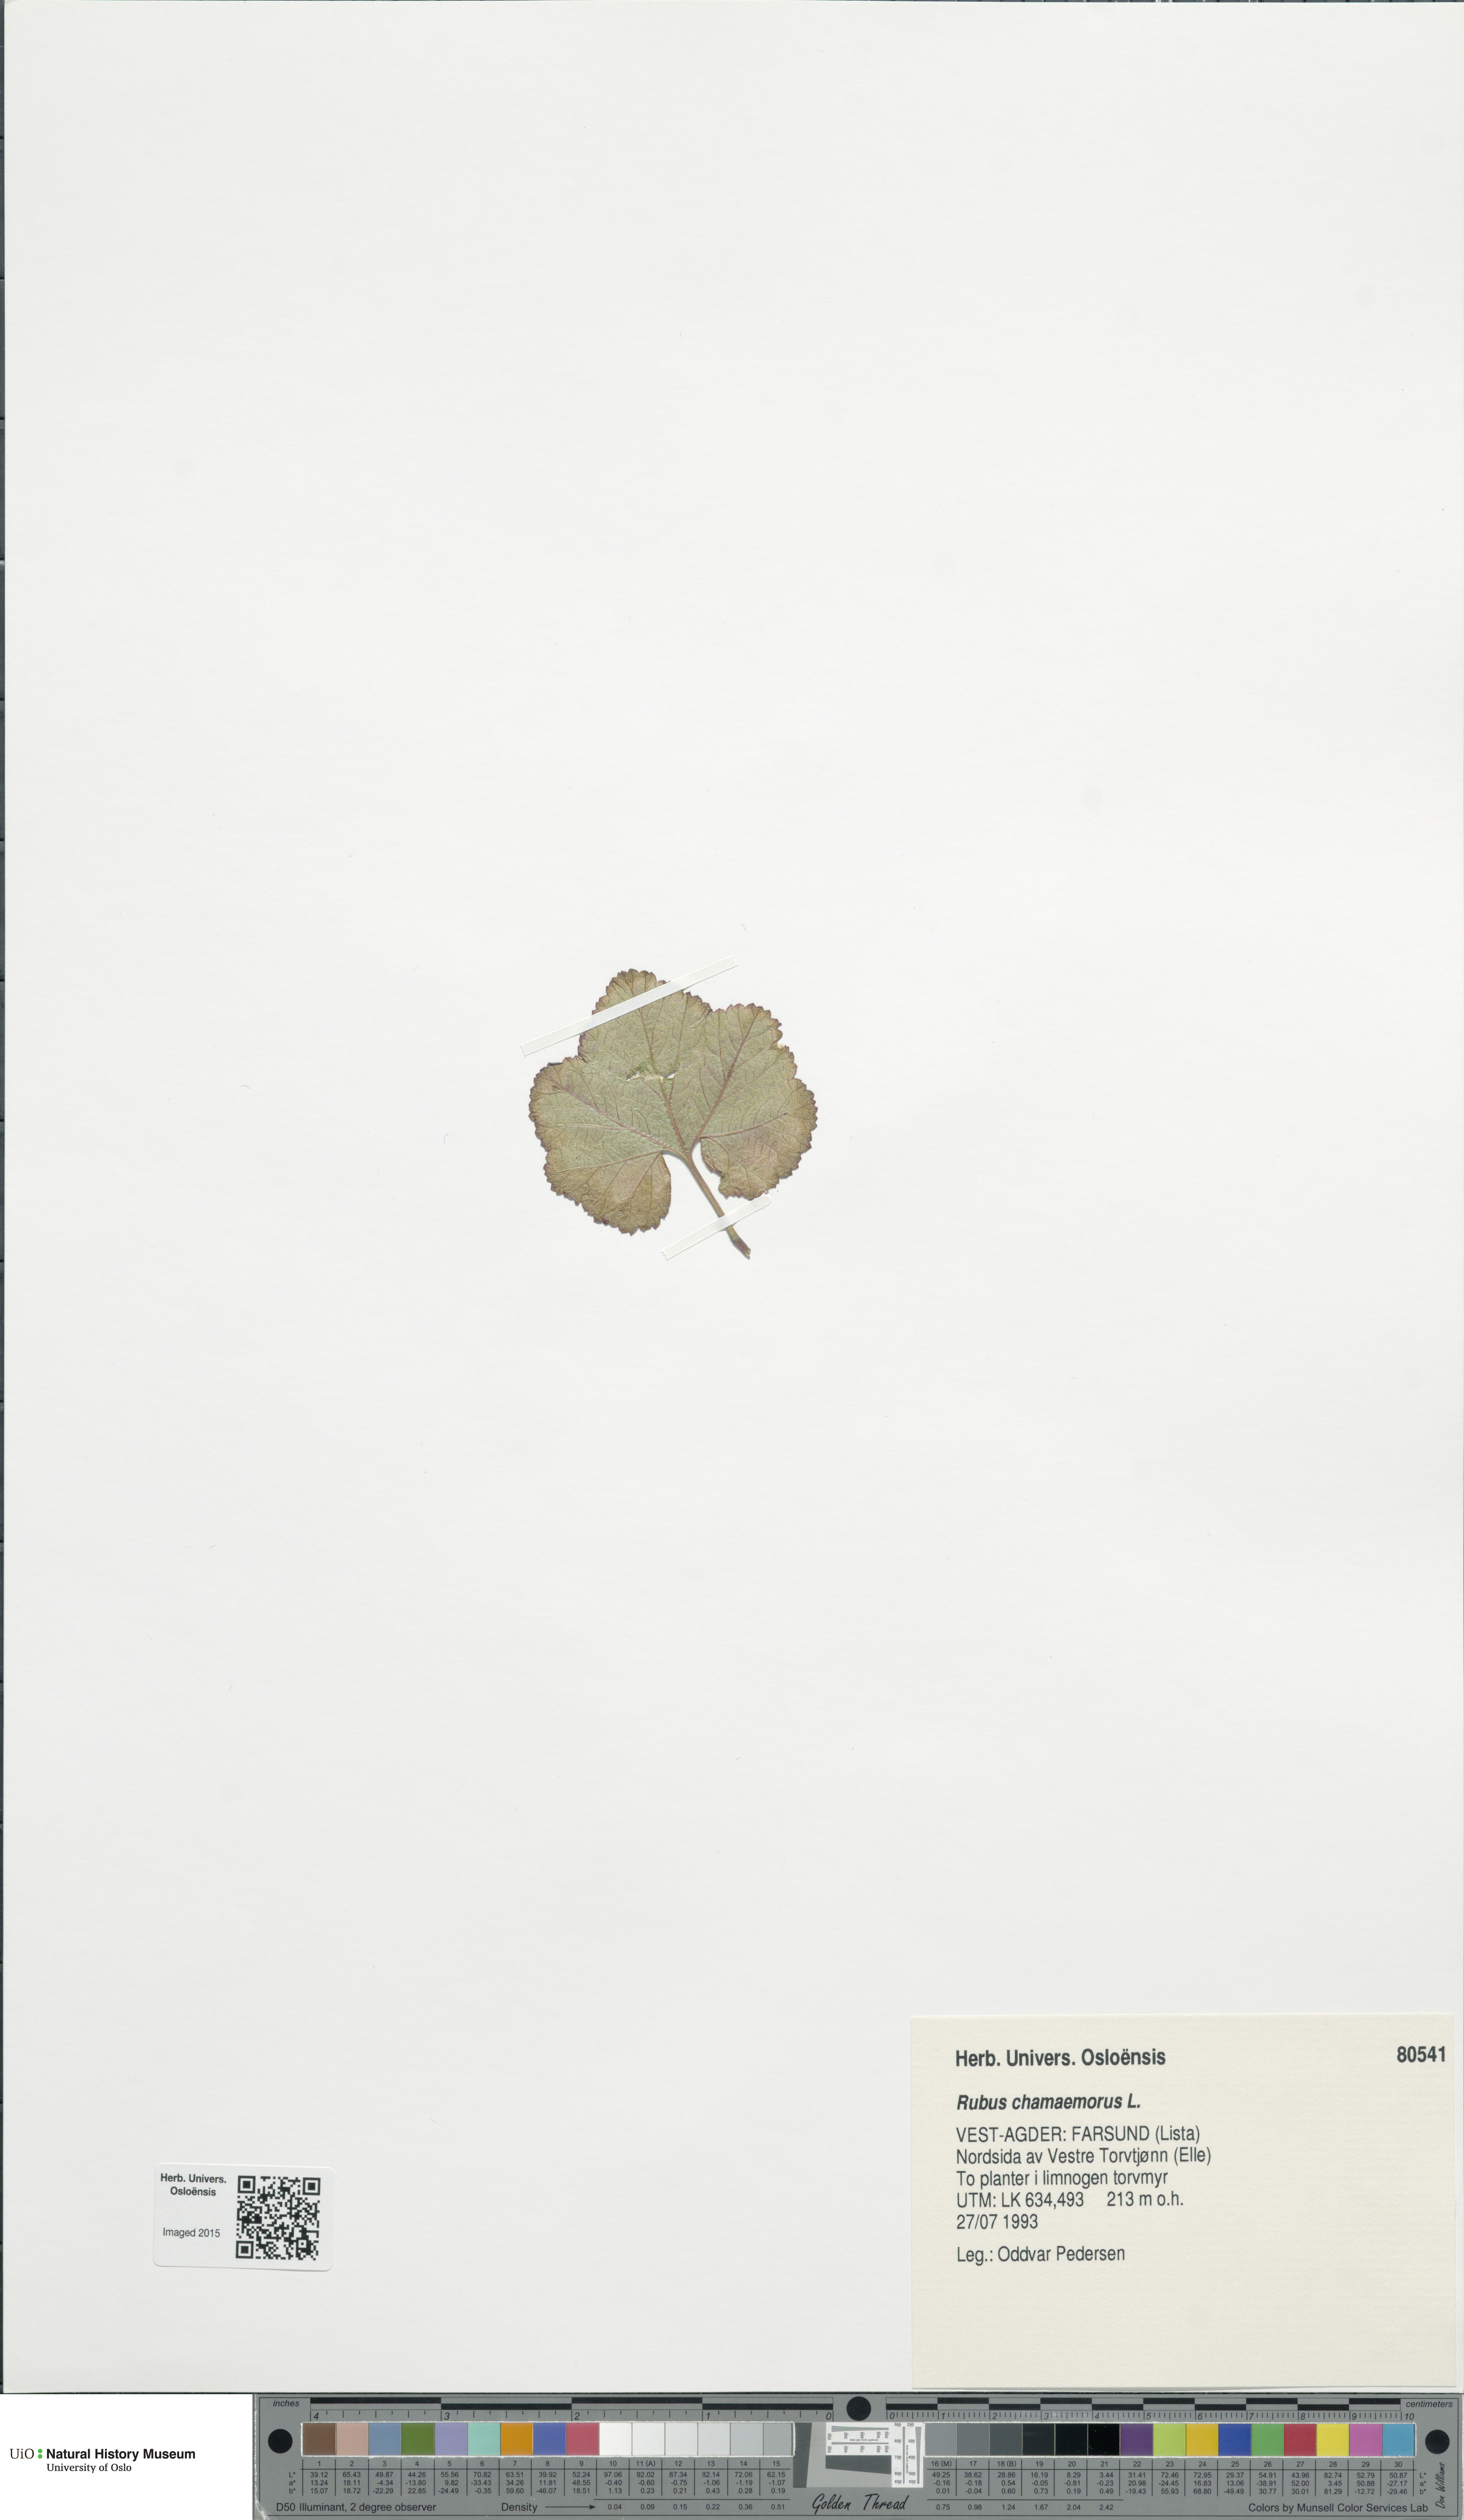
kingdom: Plantae
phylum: Tracheophyta
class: Magnoliopsida
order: Rosales
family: Rosaceae
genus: Rubus
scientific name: Rubus chamaemorus
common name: Cloudberry
